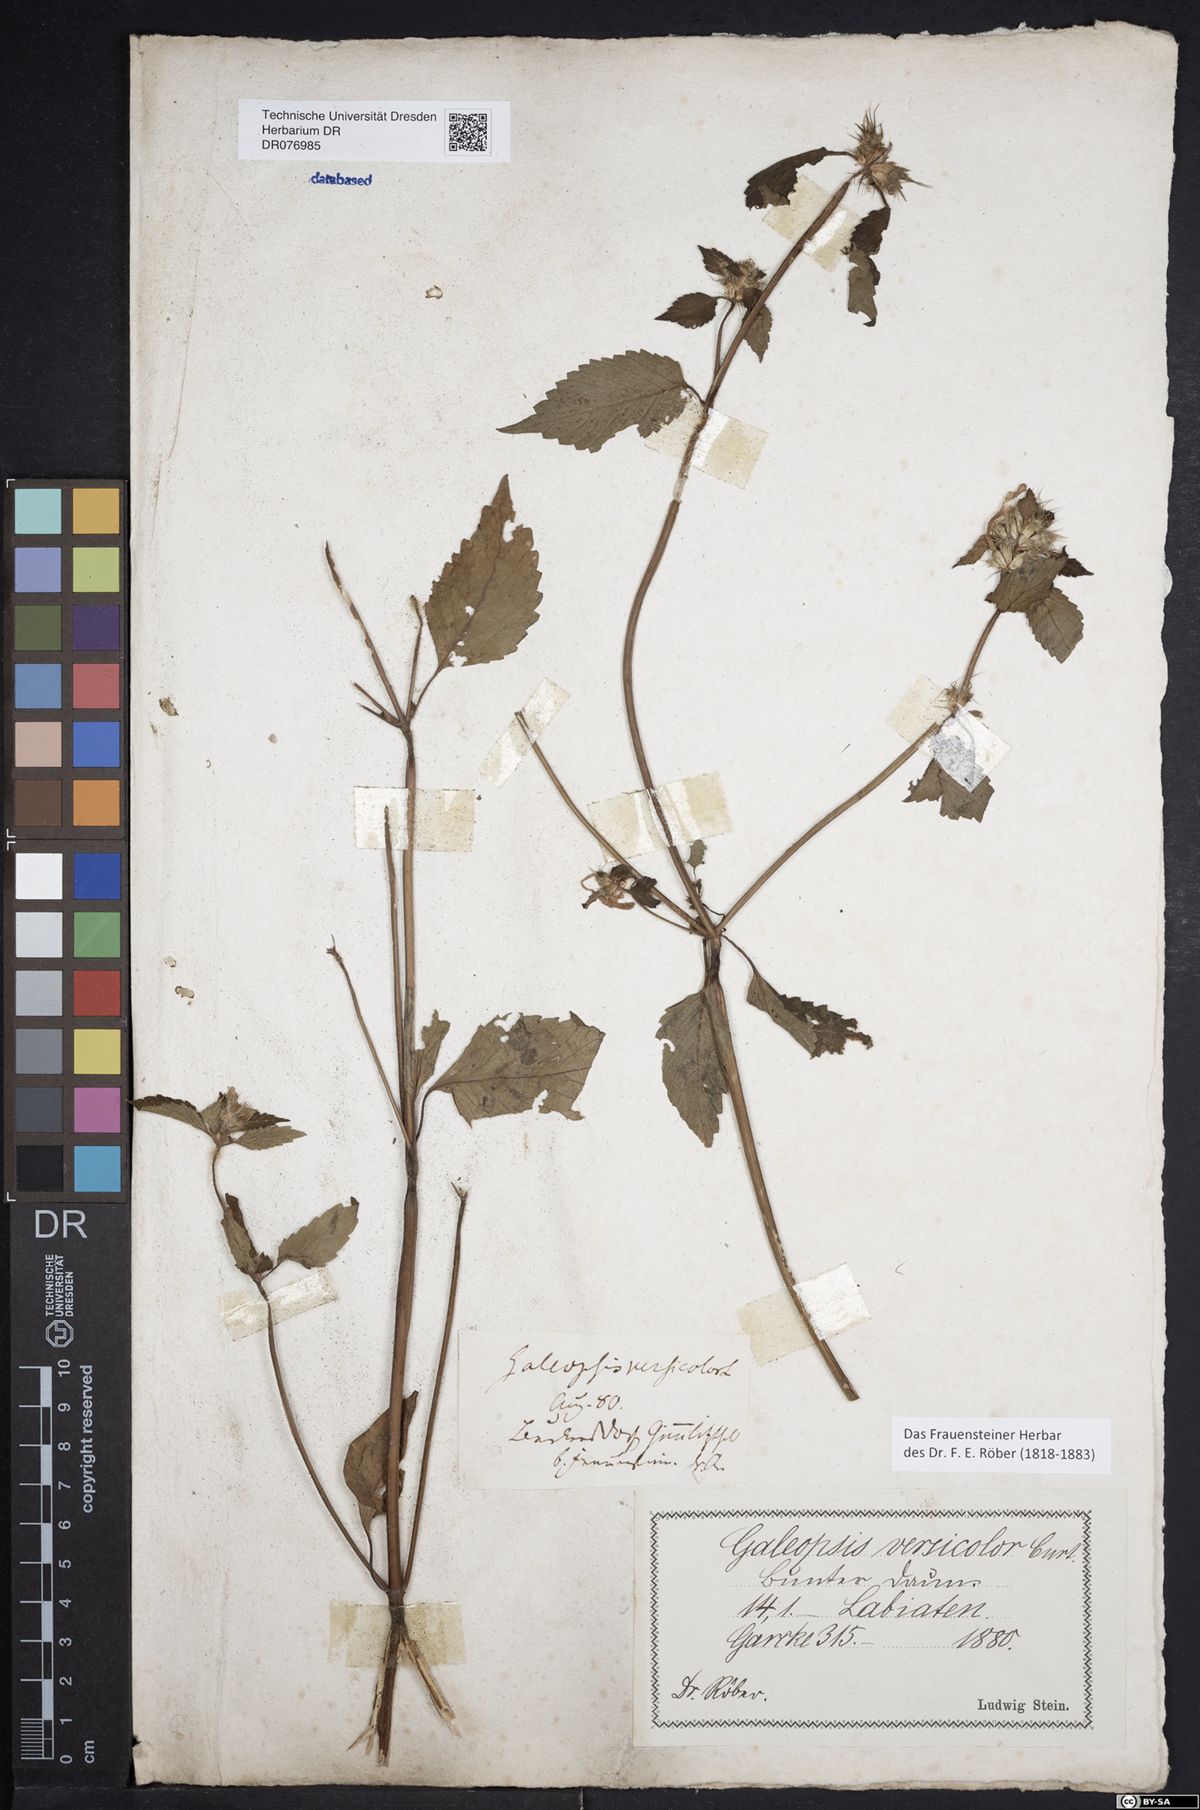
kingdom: Plantae
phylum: Tracheophyta
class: Magnoliopsida
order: Lamiales
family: Lamiaceae
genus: Galeopsis
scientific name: Galeopsis speciosa
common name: Large-flowered hemp-nettle
